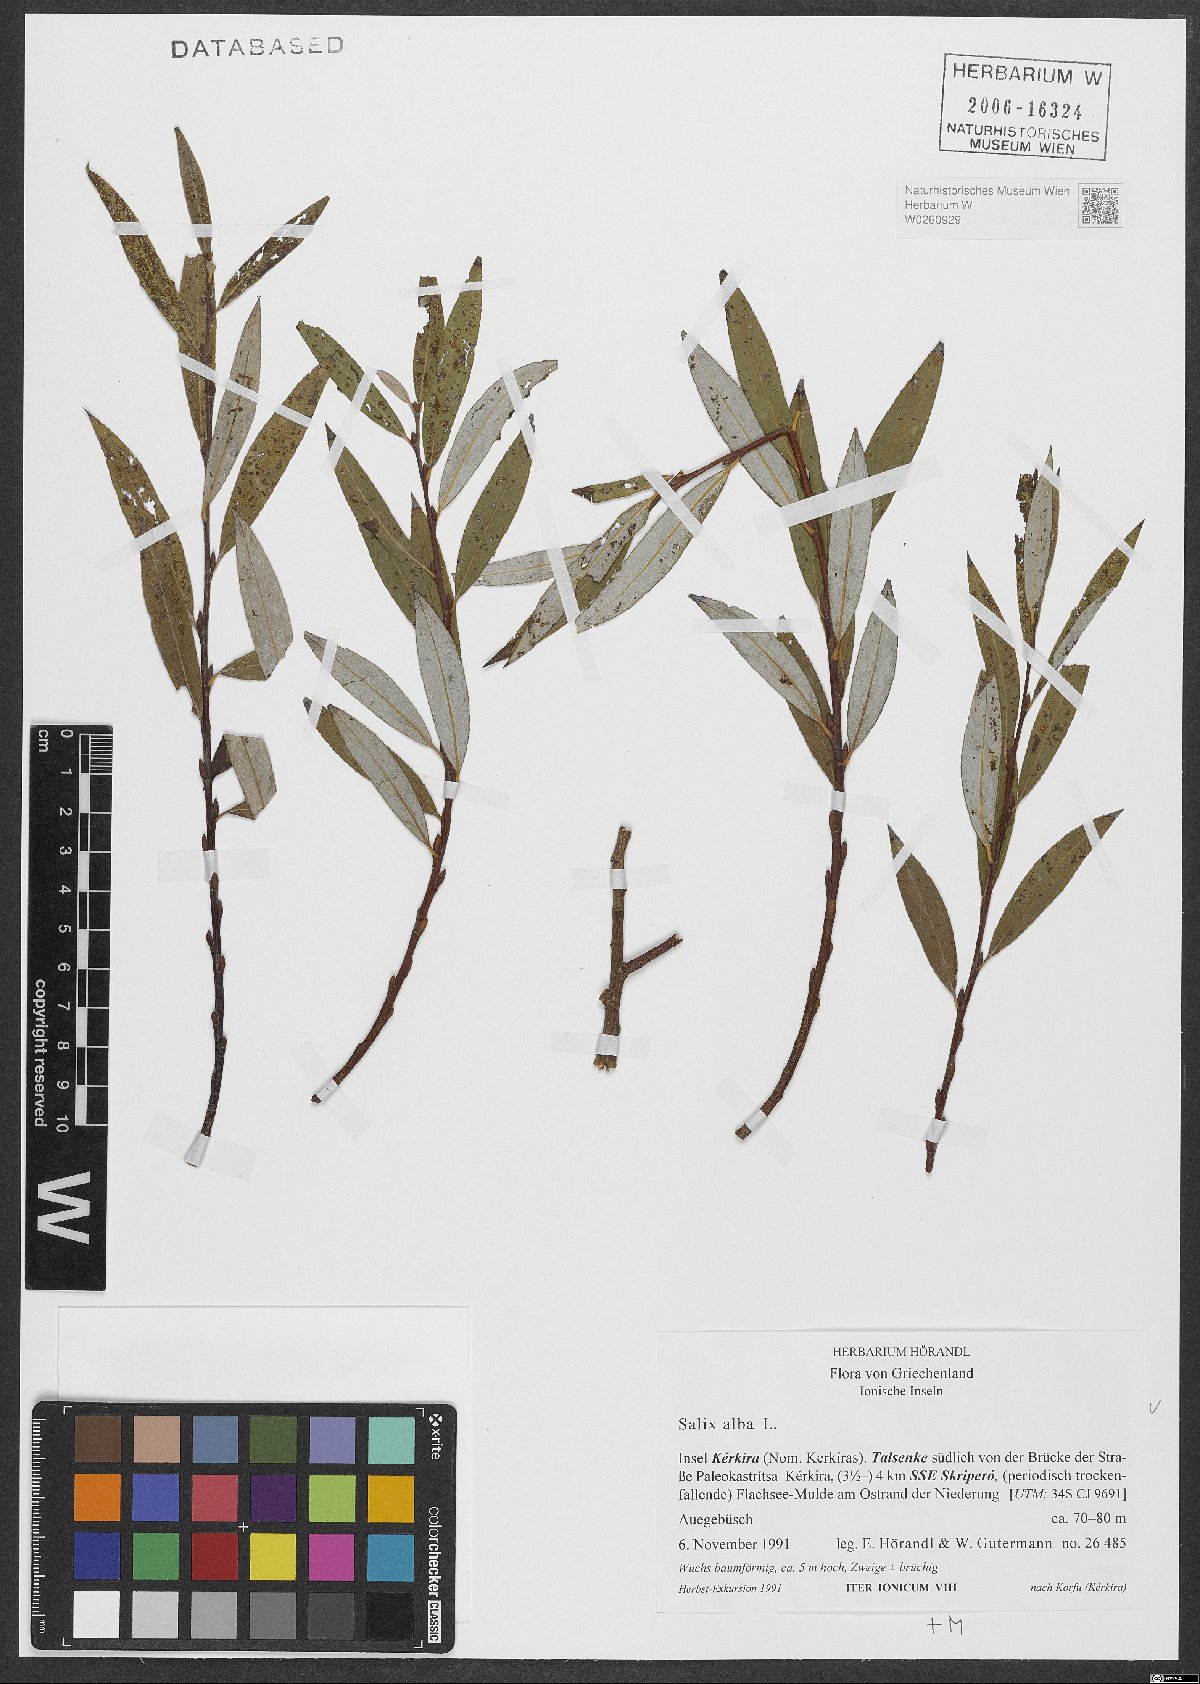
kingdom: Plantae
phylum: Tracheophyta
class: Magnoliopsida
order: Malpighiales
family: Salicaceae
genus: Salix
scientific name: Salix alba
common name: White willow
